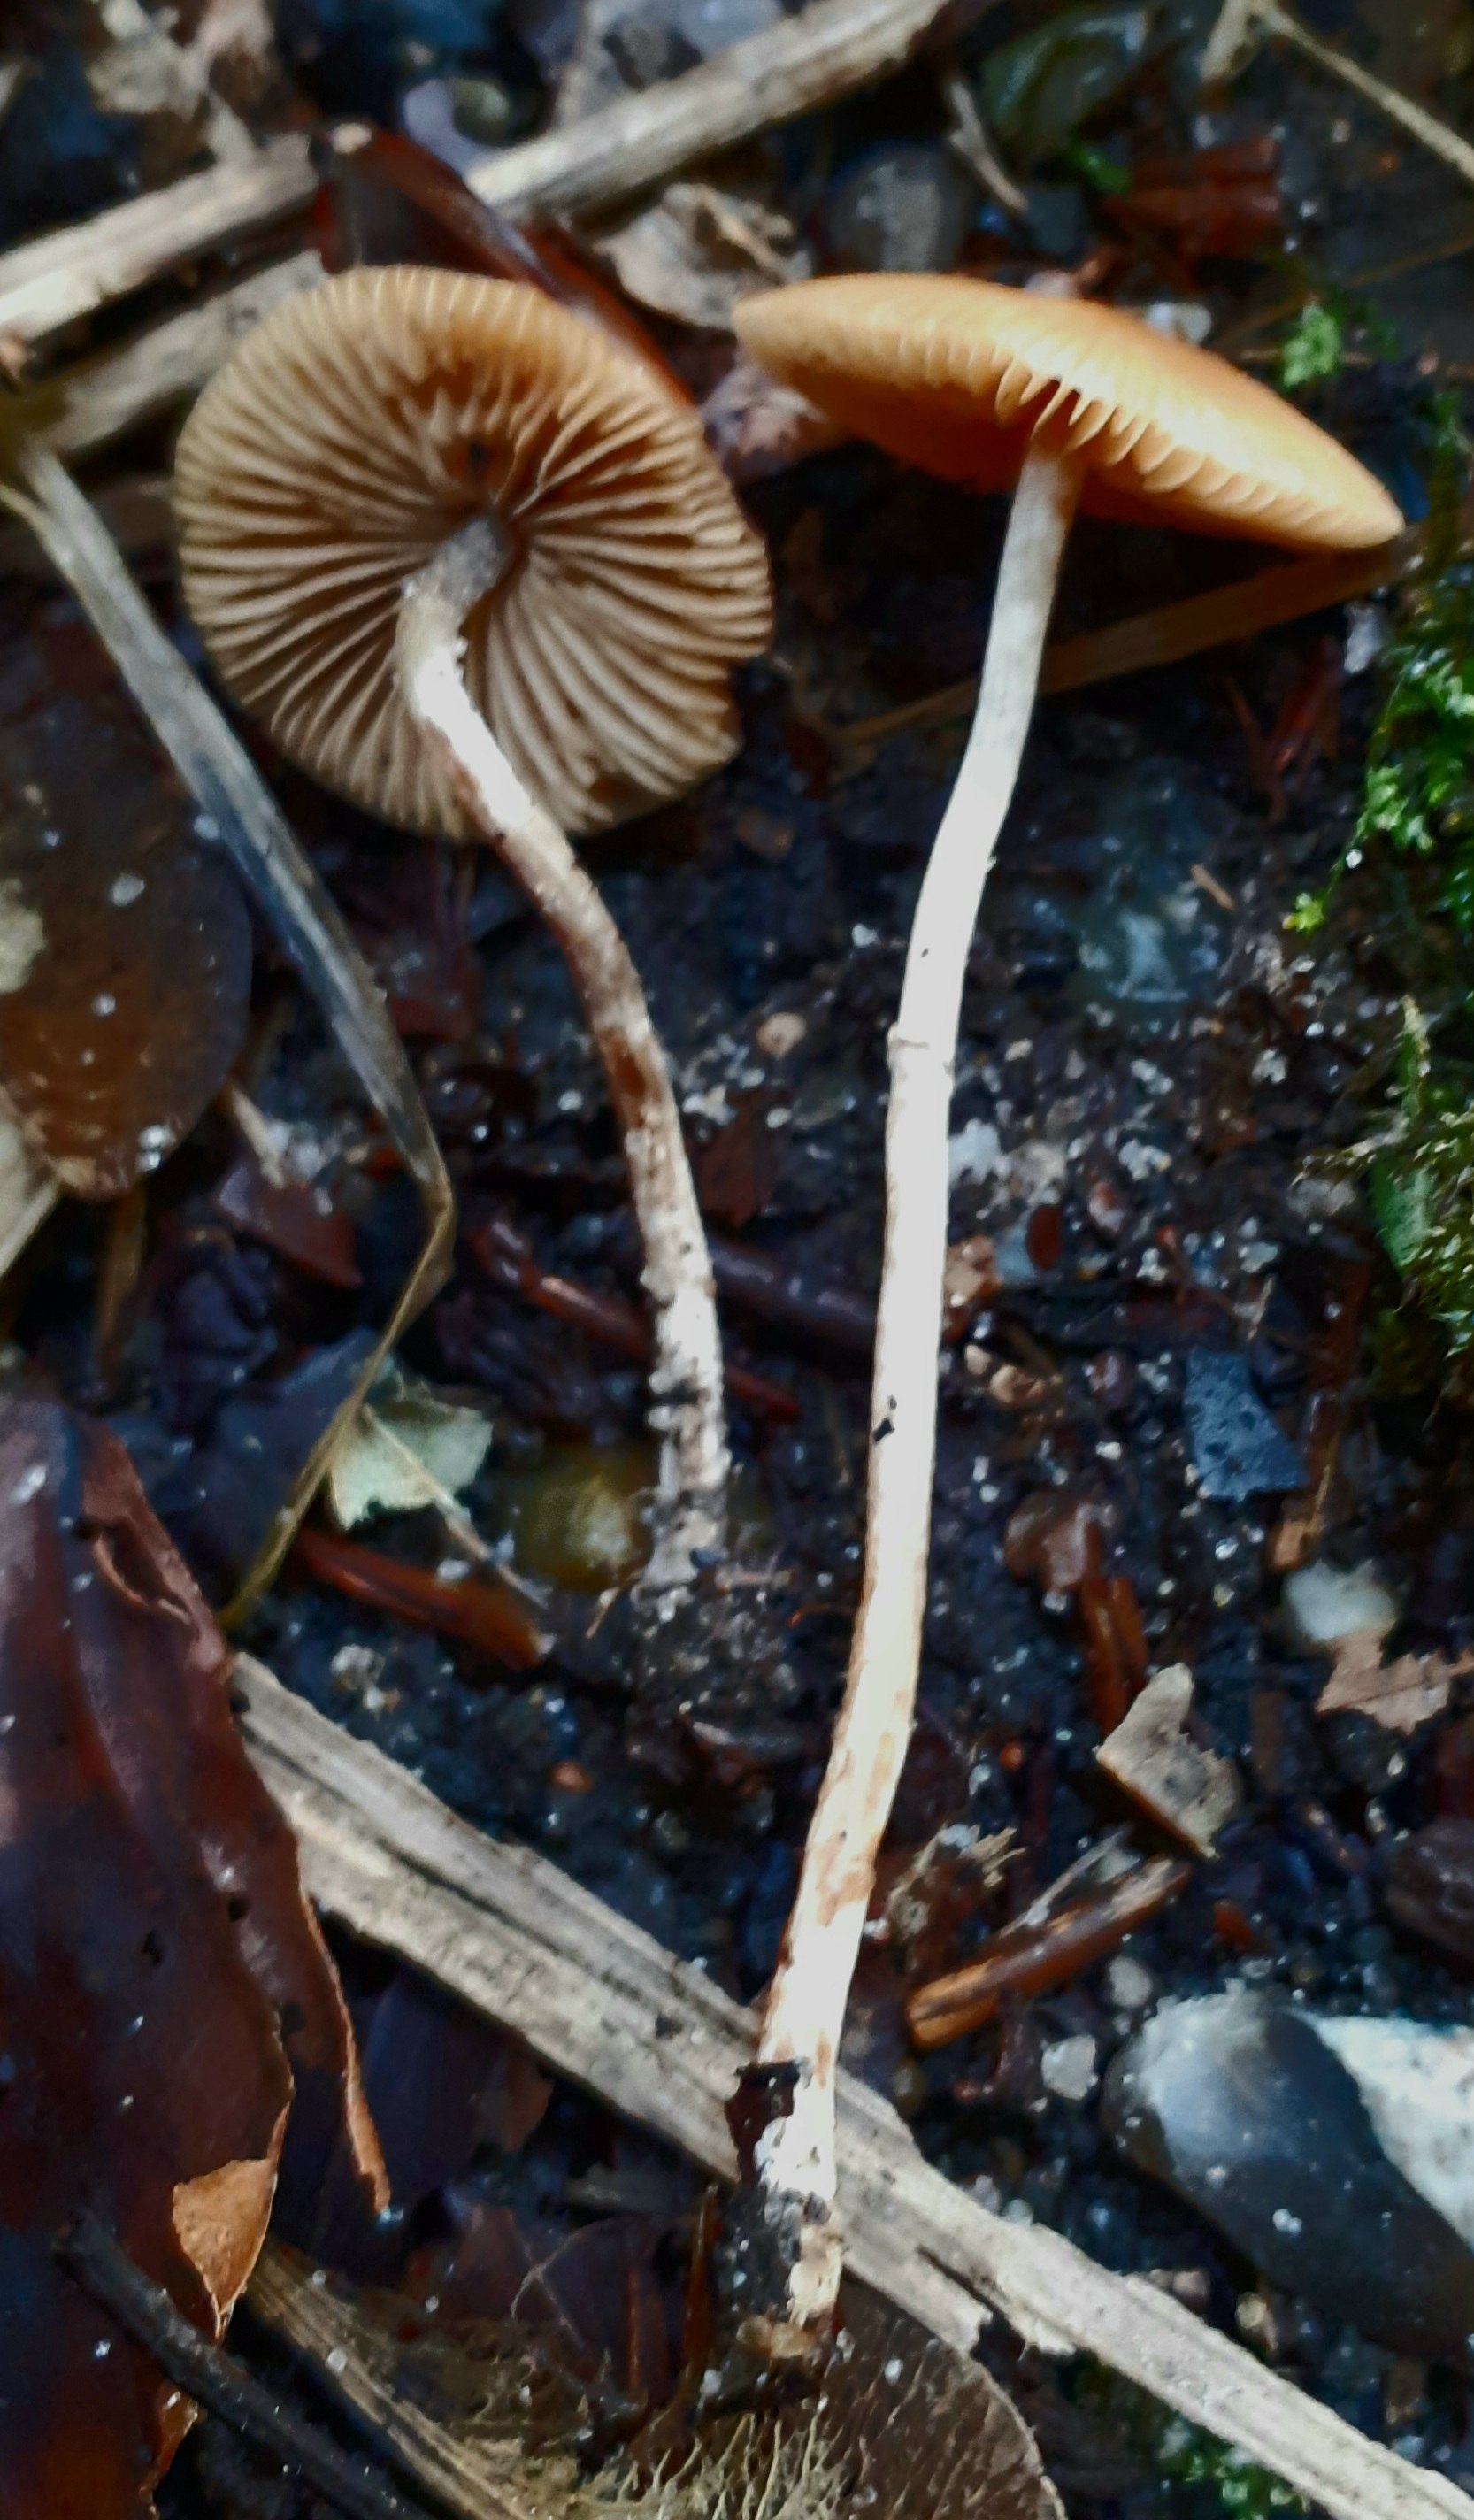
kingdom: Fungi
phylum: Basidiomycota
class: Agaricomycetes
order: Agaricales
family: Bolbitiaceae
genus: Pholiotina
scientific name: Pholiotina
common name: dansehat
